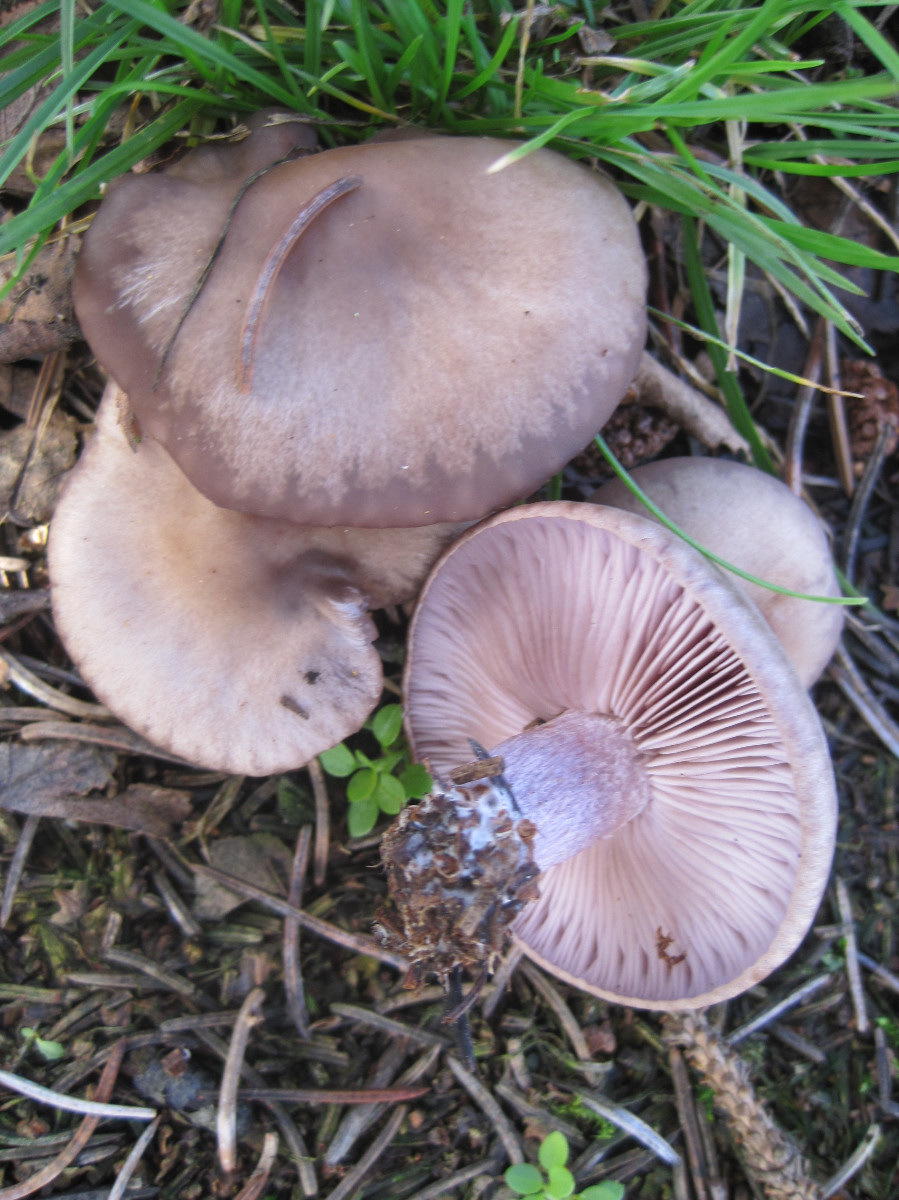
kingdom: Fungi
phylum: Basidiomycota
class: Agaricomycetes
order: Agaricales
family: Tricholomataceae
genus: Lepista
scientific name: Lepista nuda
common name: violet hekseringshat
